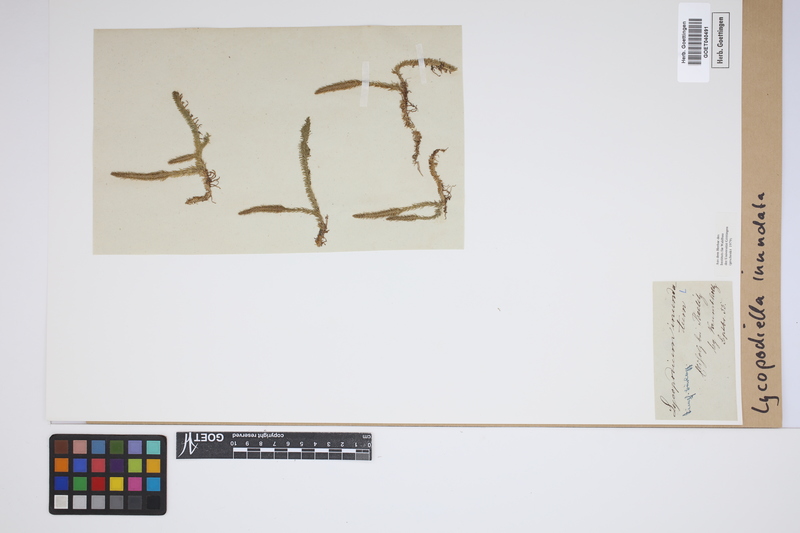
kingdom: Plantae
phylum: Tracheophyta
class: Lycopodiopsida
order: Lycopodiales
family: Lycopodiaceae
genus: Lycopodiella
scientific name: Lycopodiella inundata
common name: Marsh clubmoss
